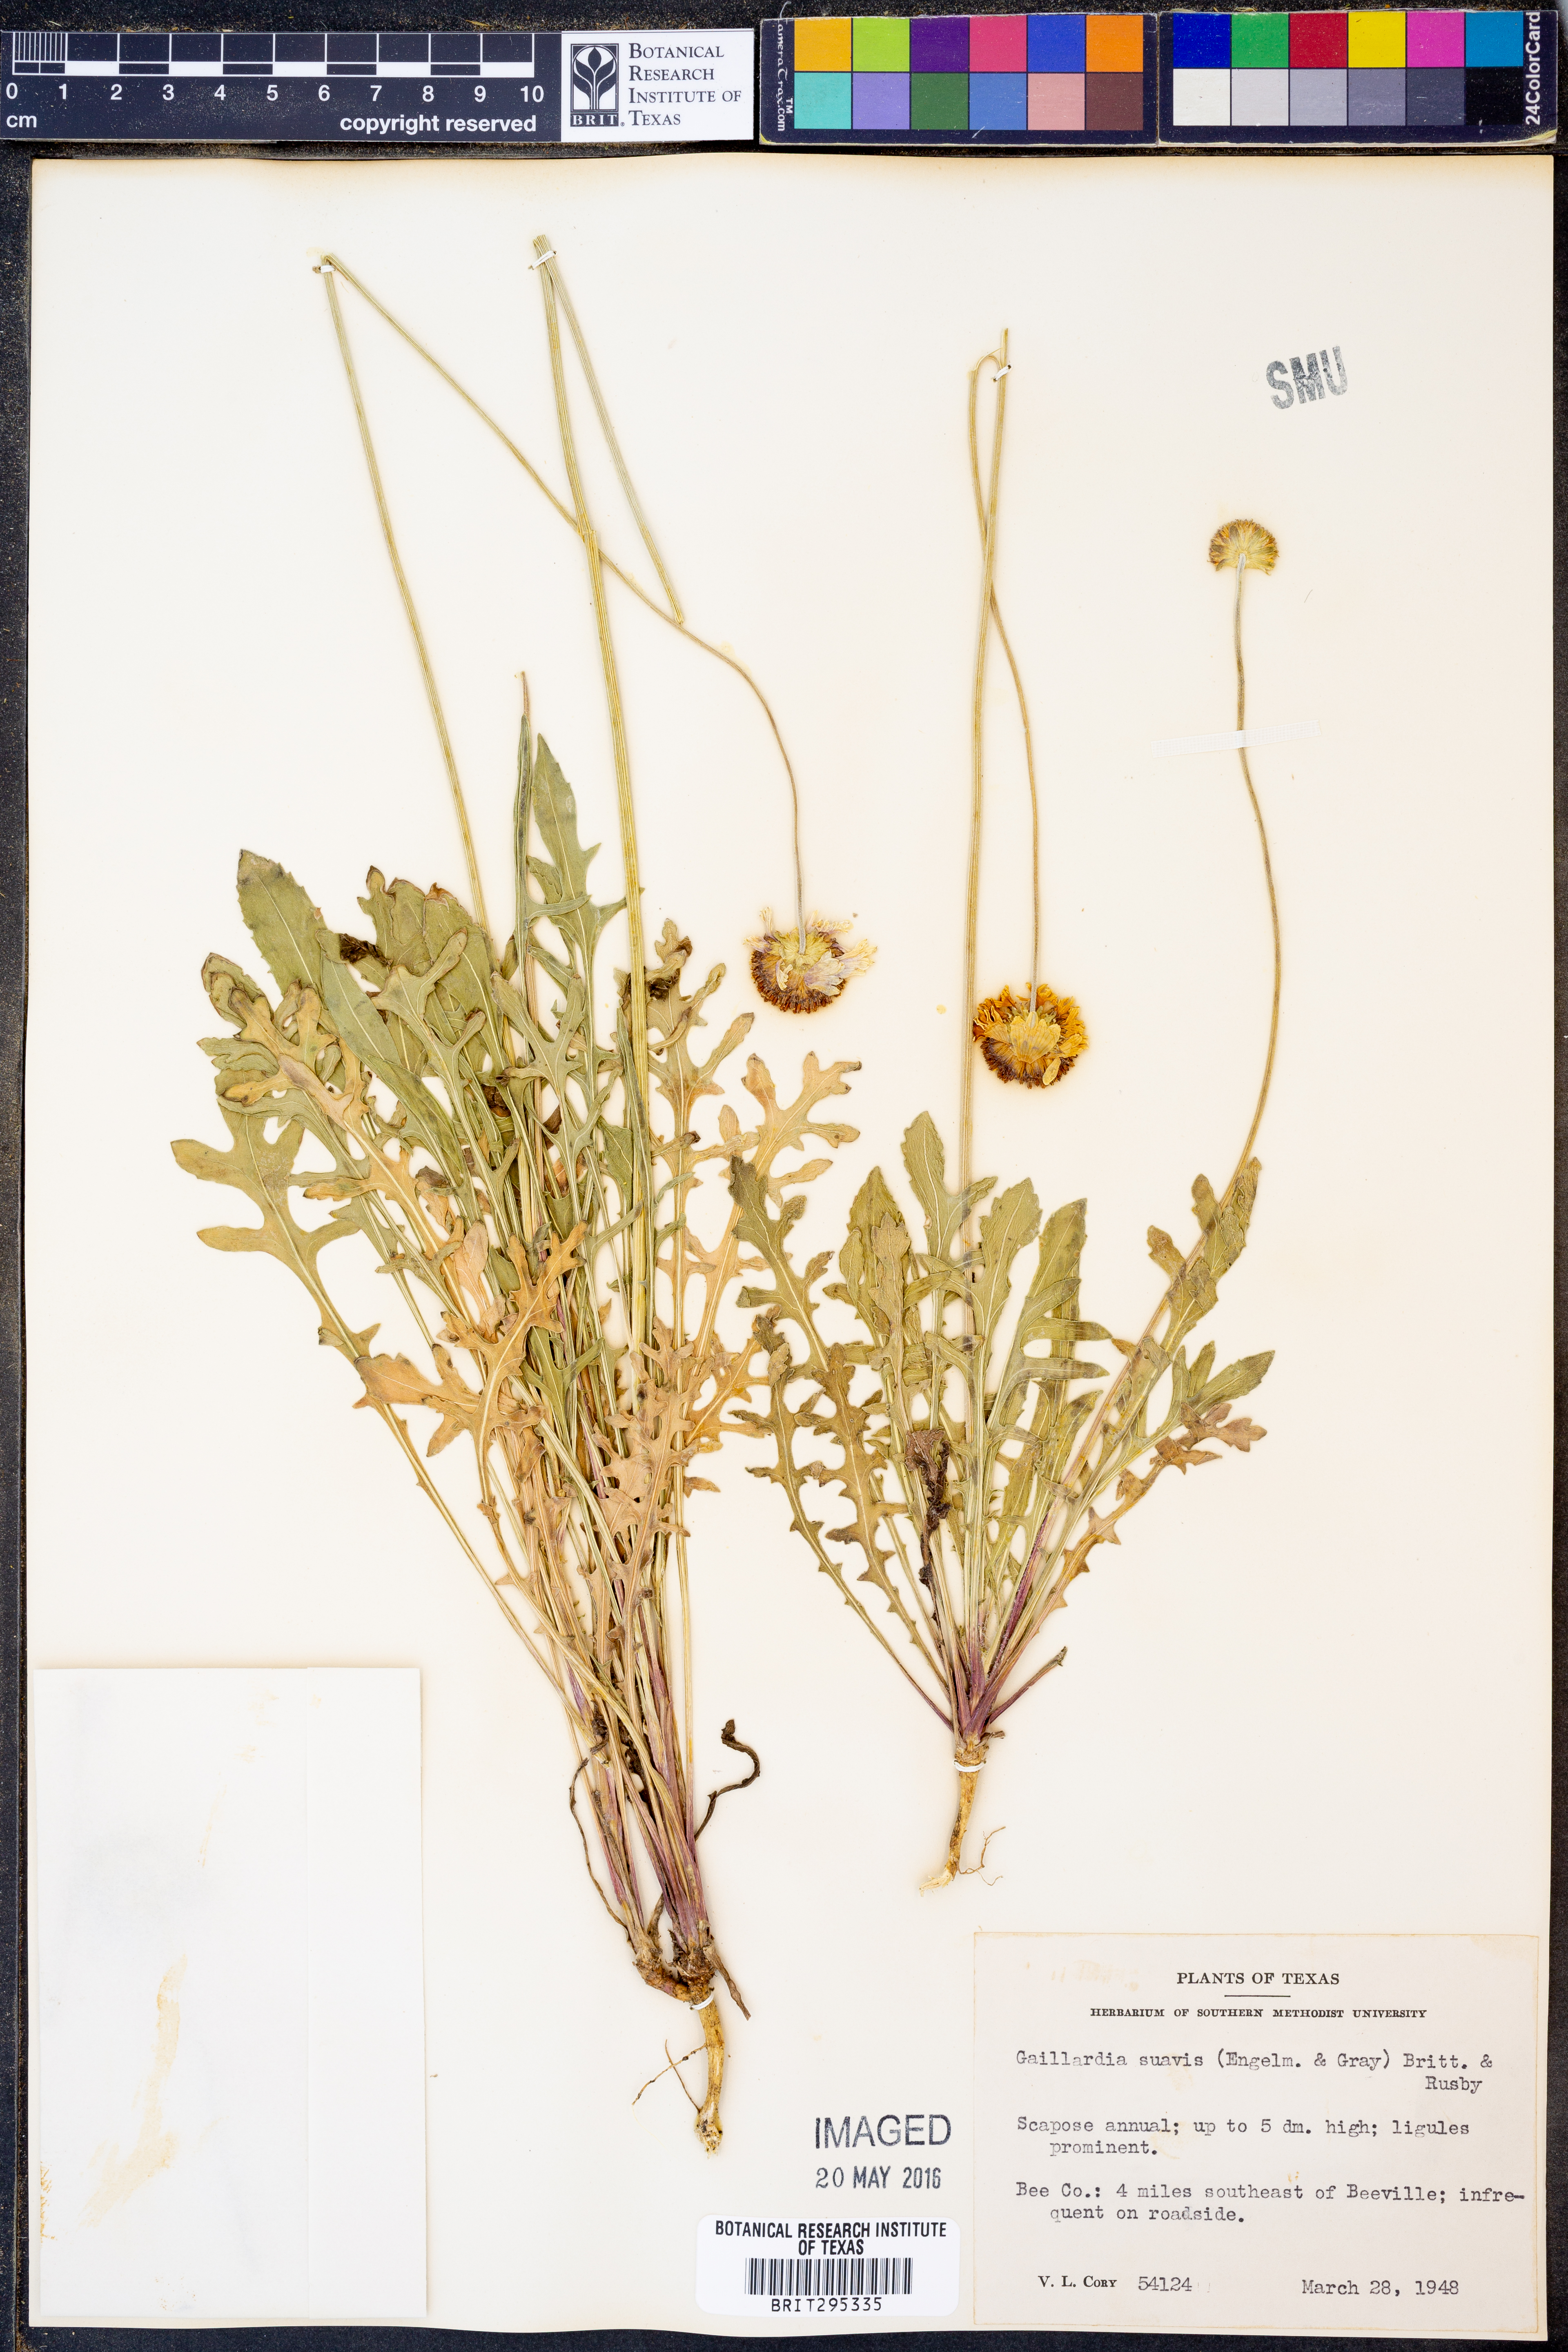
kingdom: Plantae
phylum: Tracheophyta
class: Magnoliopsida
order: Asterales
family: Asteraceae
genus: Gaillardia
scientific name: Gaillardia suavis
